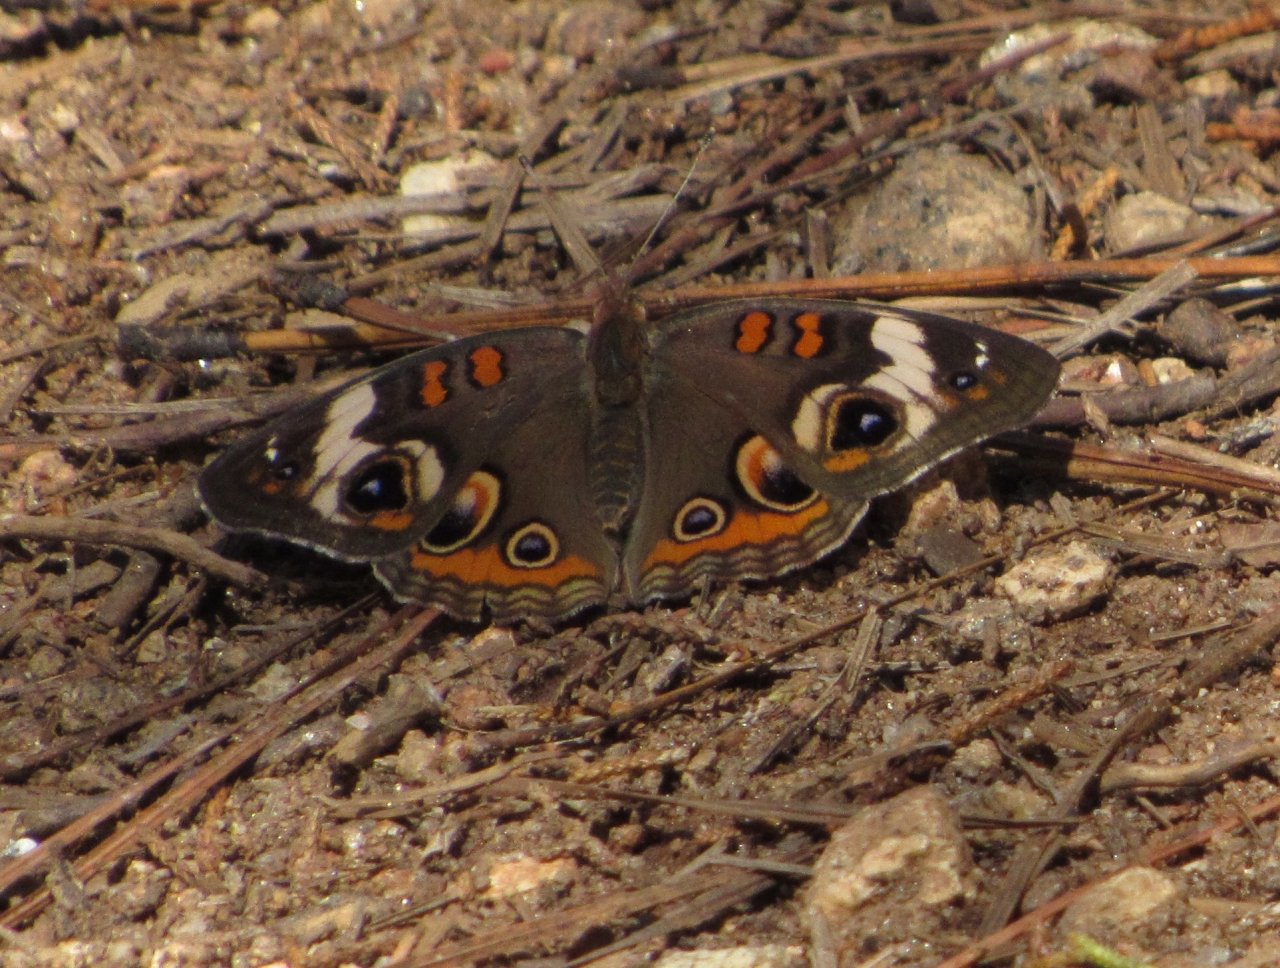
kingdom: Animalia
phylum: Arthropoda
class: Insecta
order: Lepidoptera
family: Nymphalidae
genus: Junonia
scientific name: Junonia coenia
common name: Common Buckeye
